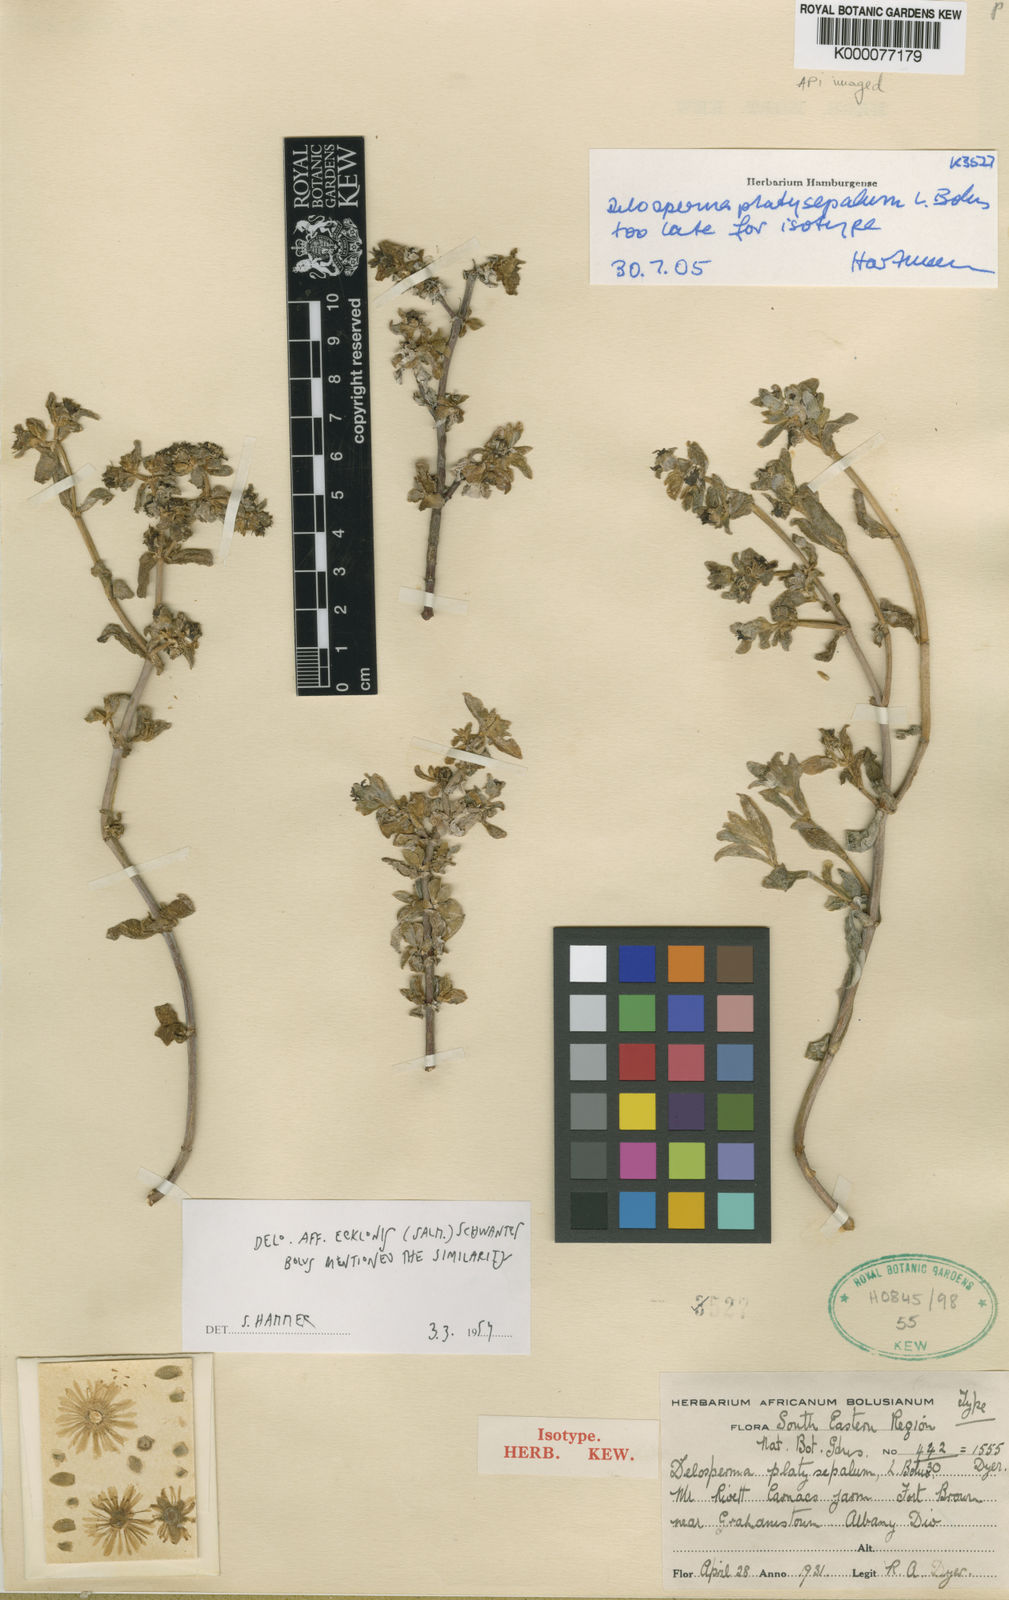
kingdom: Plantae
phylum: Tracheophyta
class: Magnoliopsida
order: Caryophyllales
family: Aizoaceae
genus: Delosperma
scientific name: Delosperma platysepalum
